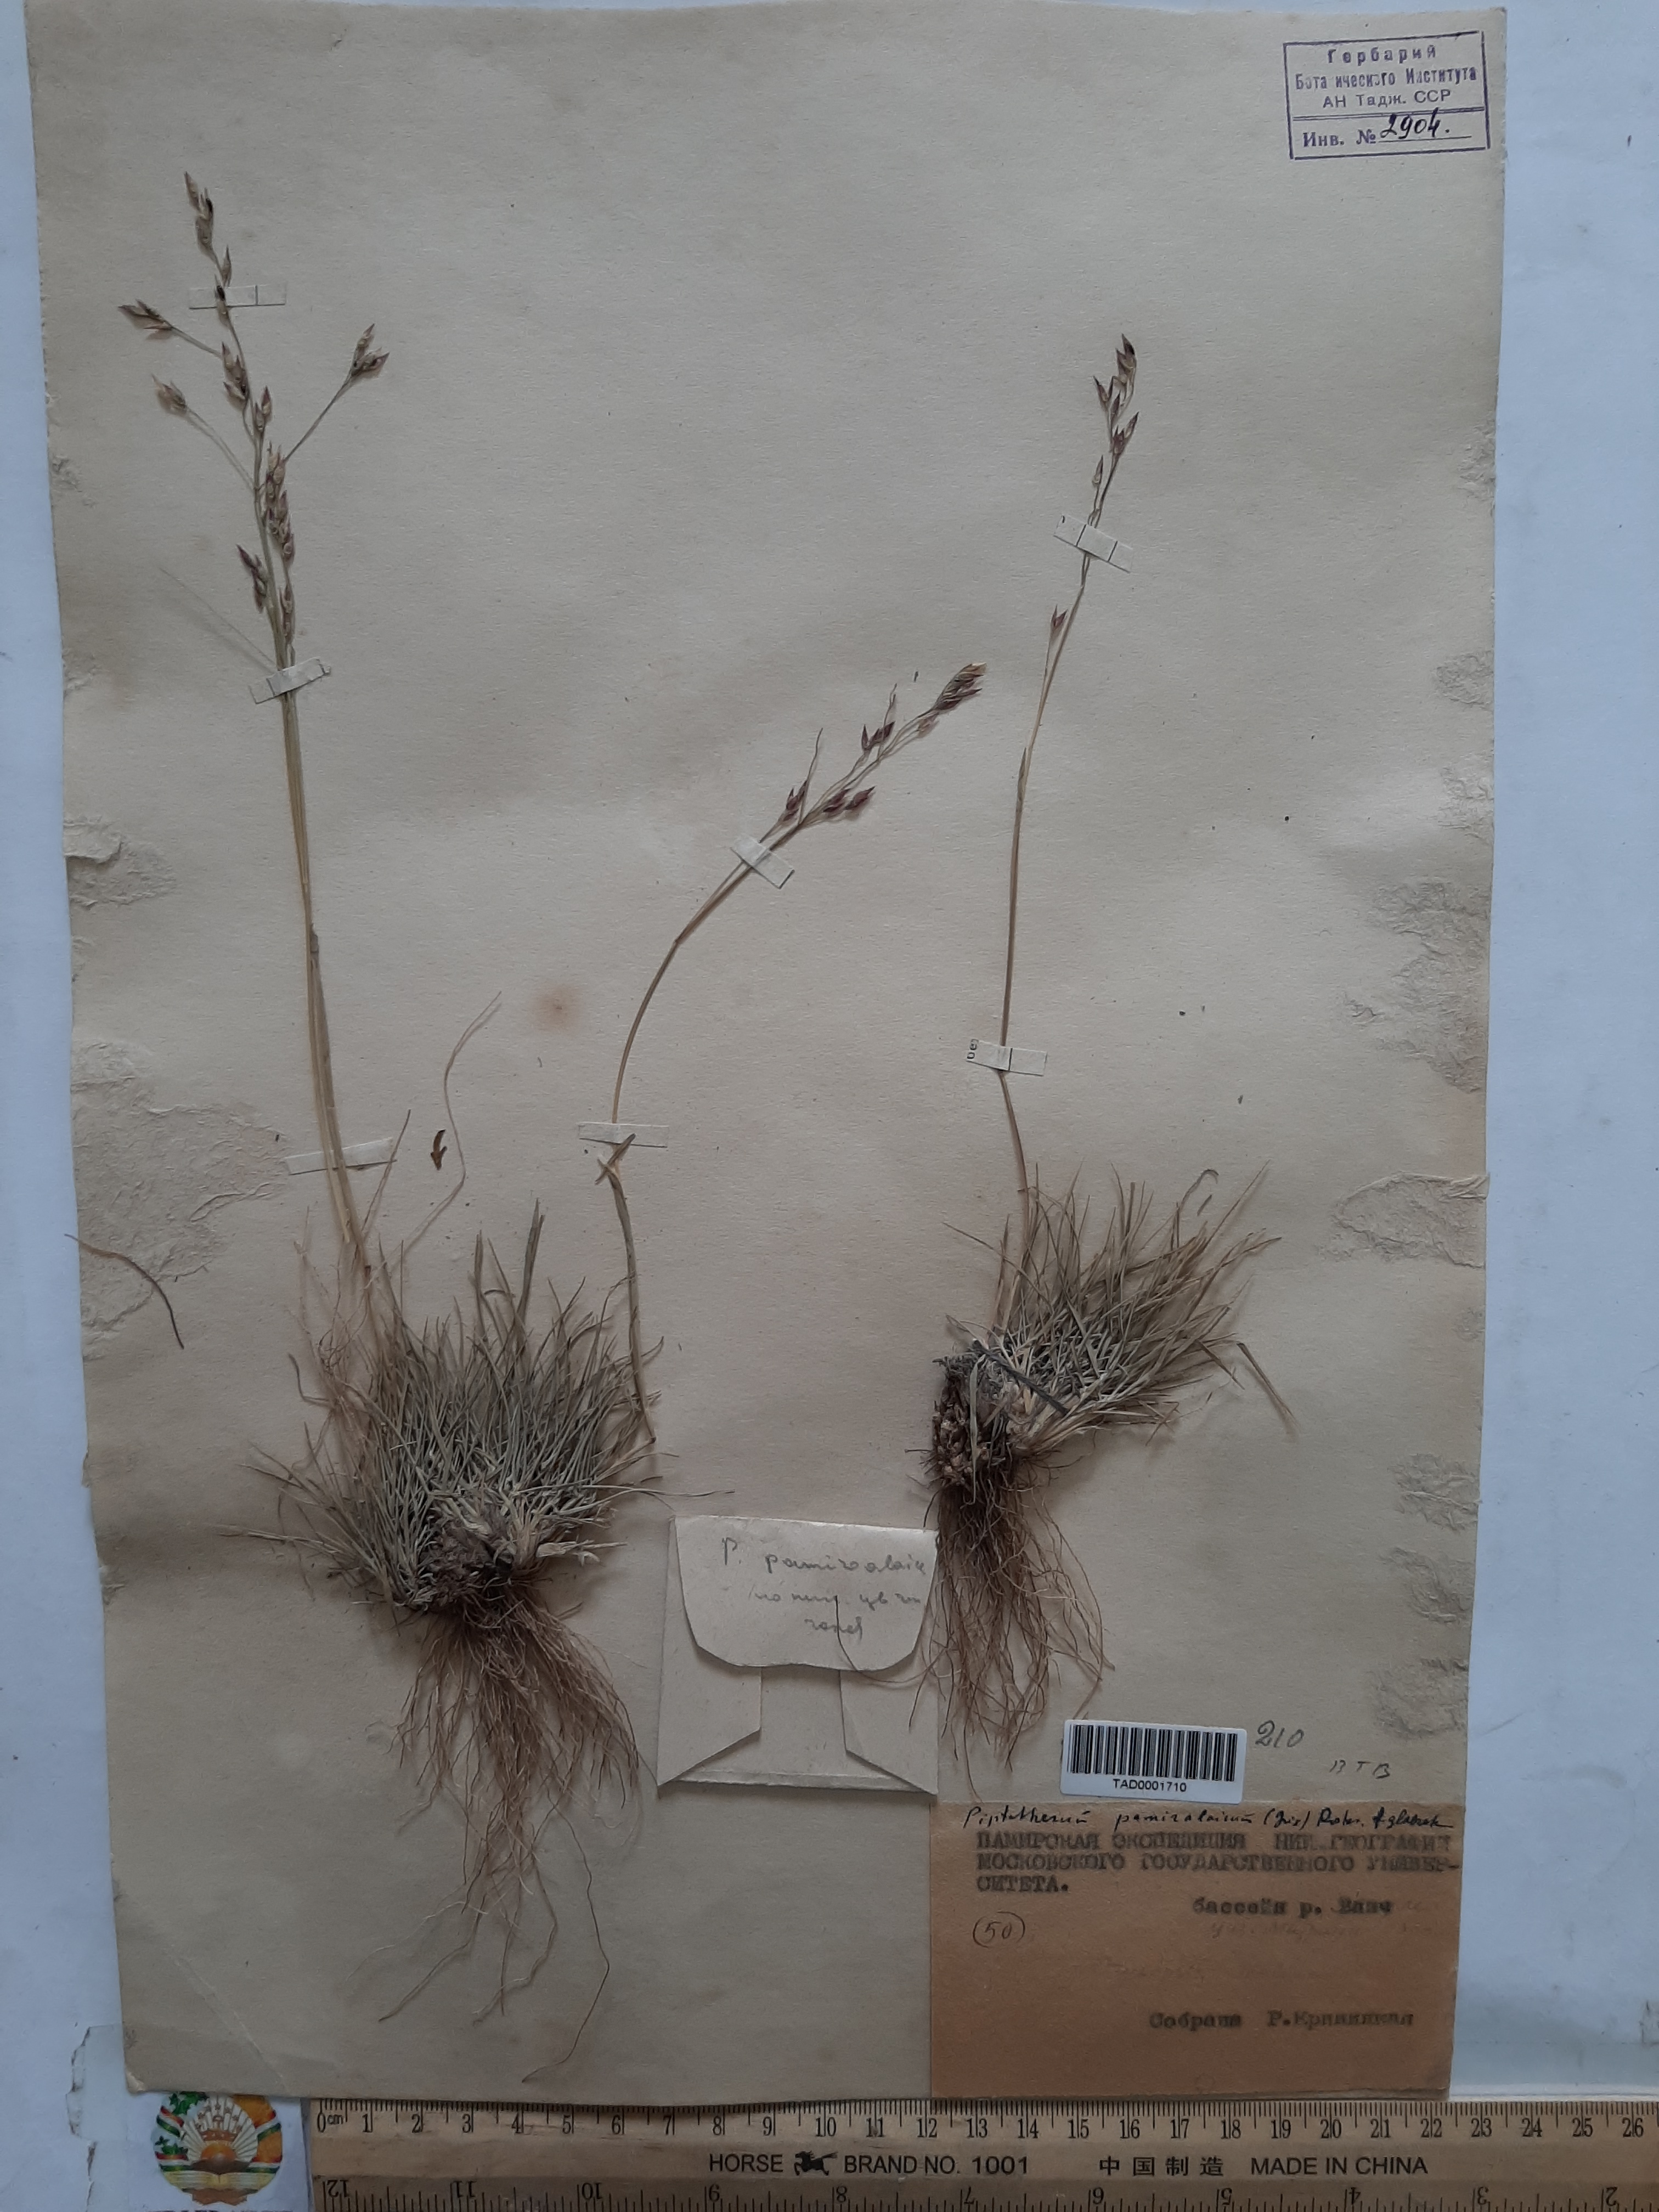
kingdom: Plantae
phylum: Tracheophyta
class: Liliopsida
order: Poales
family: Poaceae
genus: Piptatherum
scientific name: Piptatherum pamiralaicum
